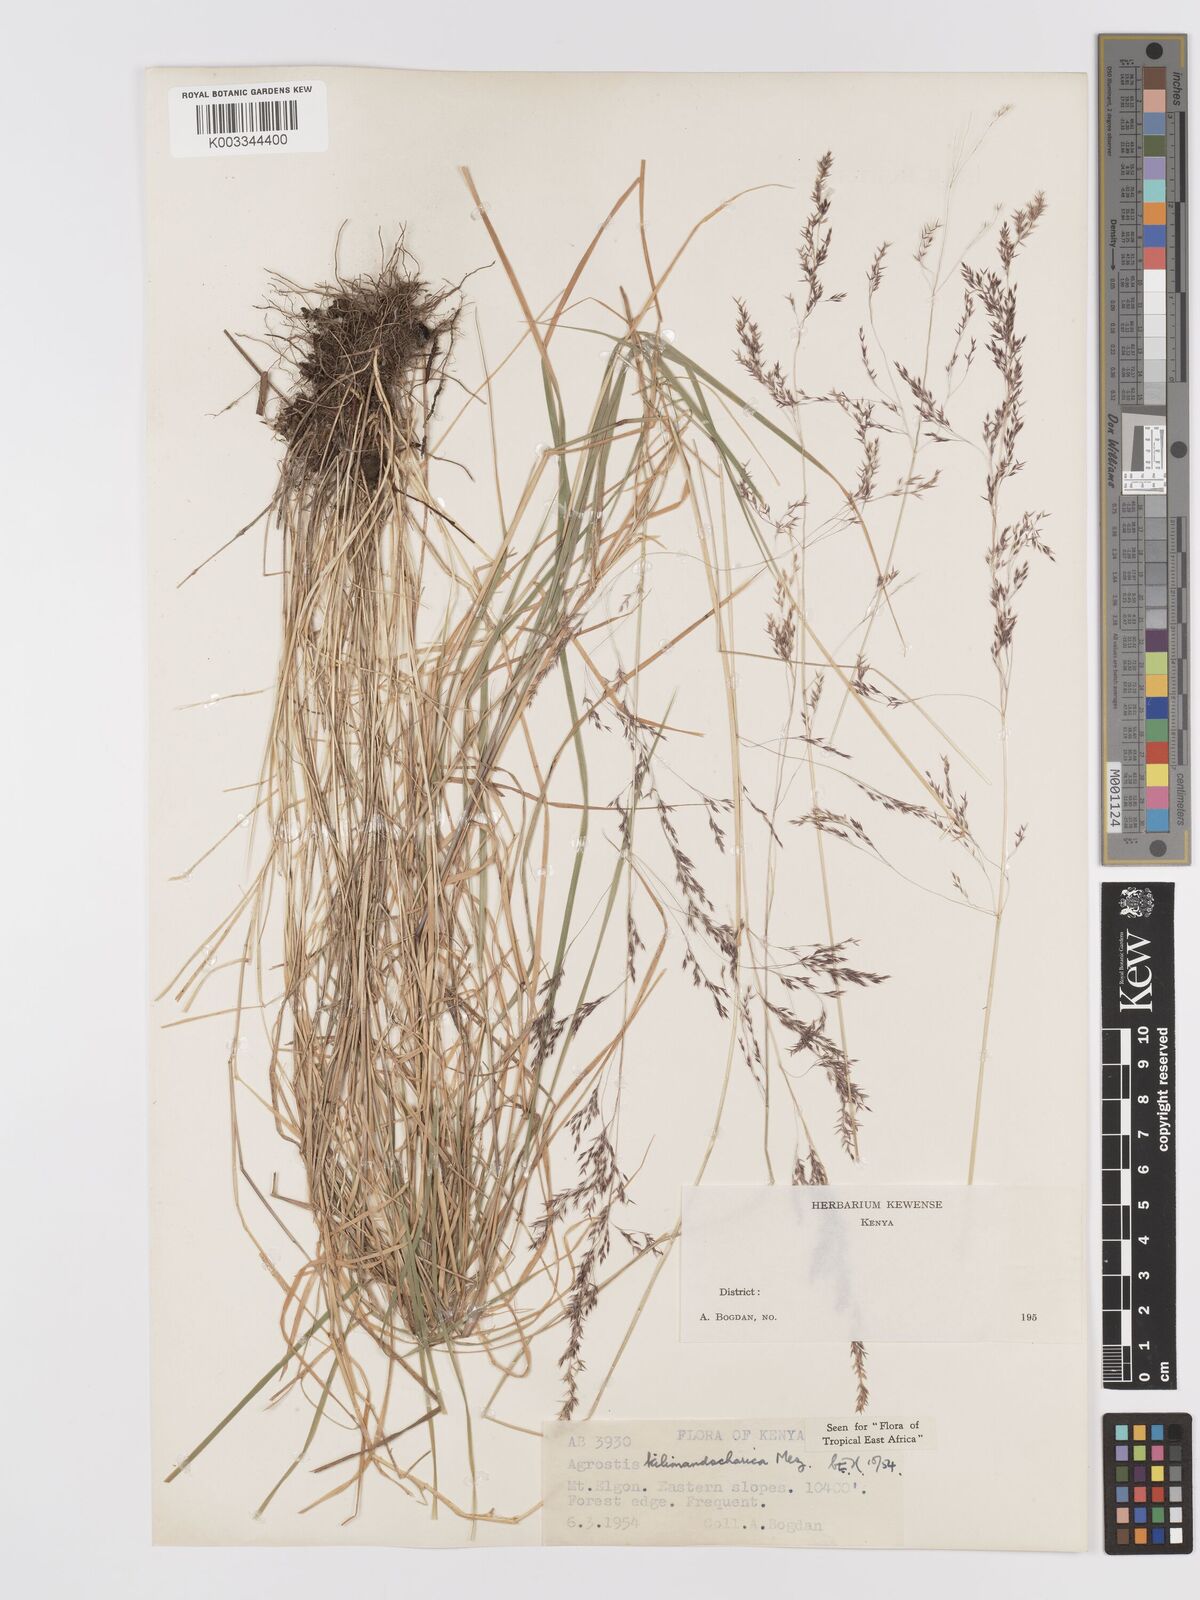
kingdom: Plantae
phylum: Tracheophyta
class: Liliopsida
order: Poales
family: Poaceae
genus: Agrostis
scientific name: Agrostis kilimandscharica
